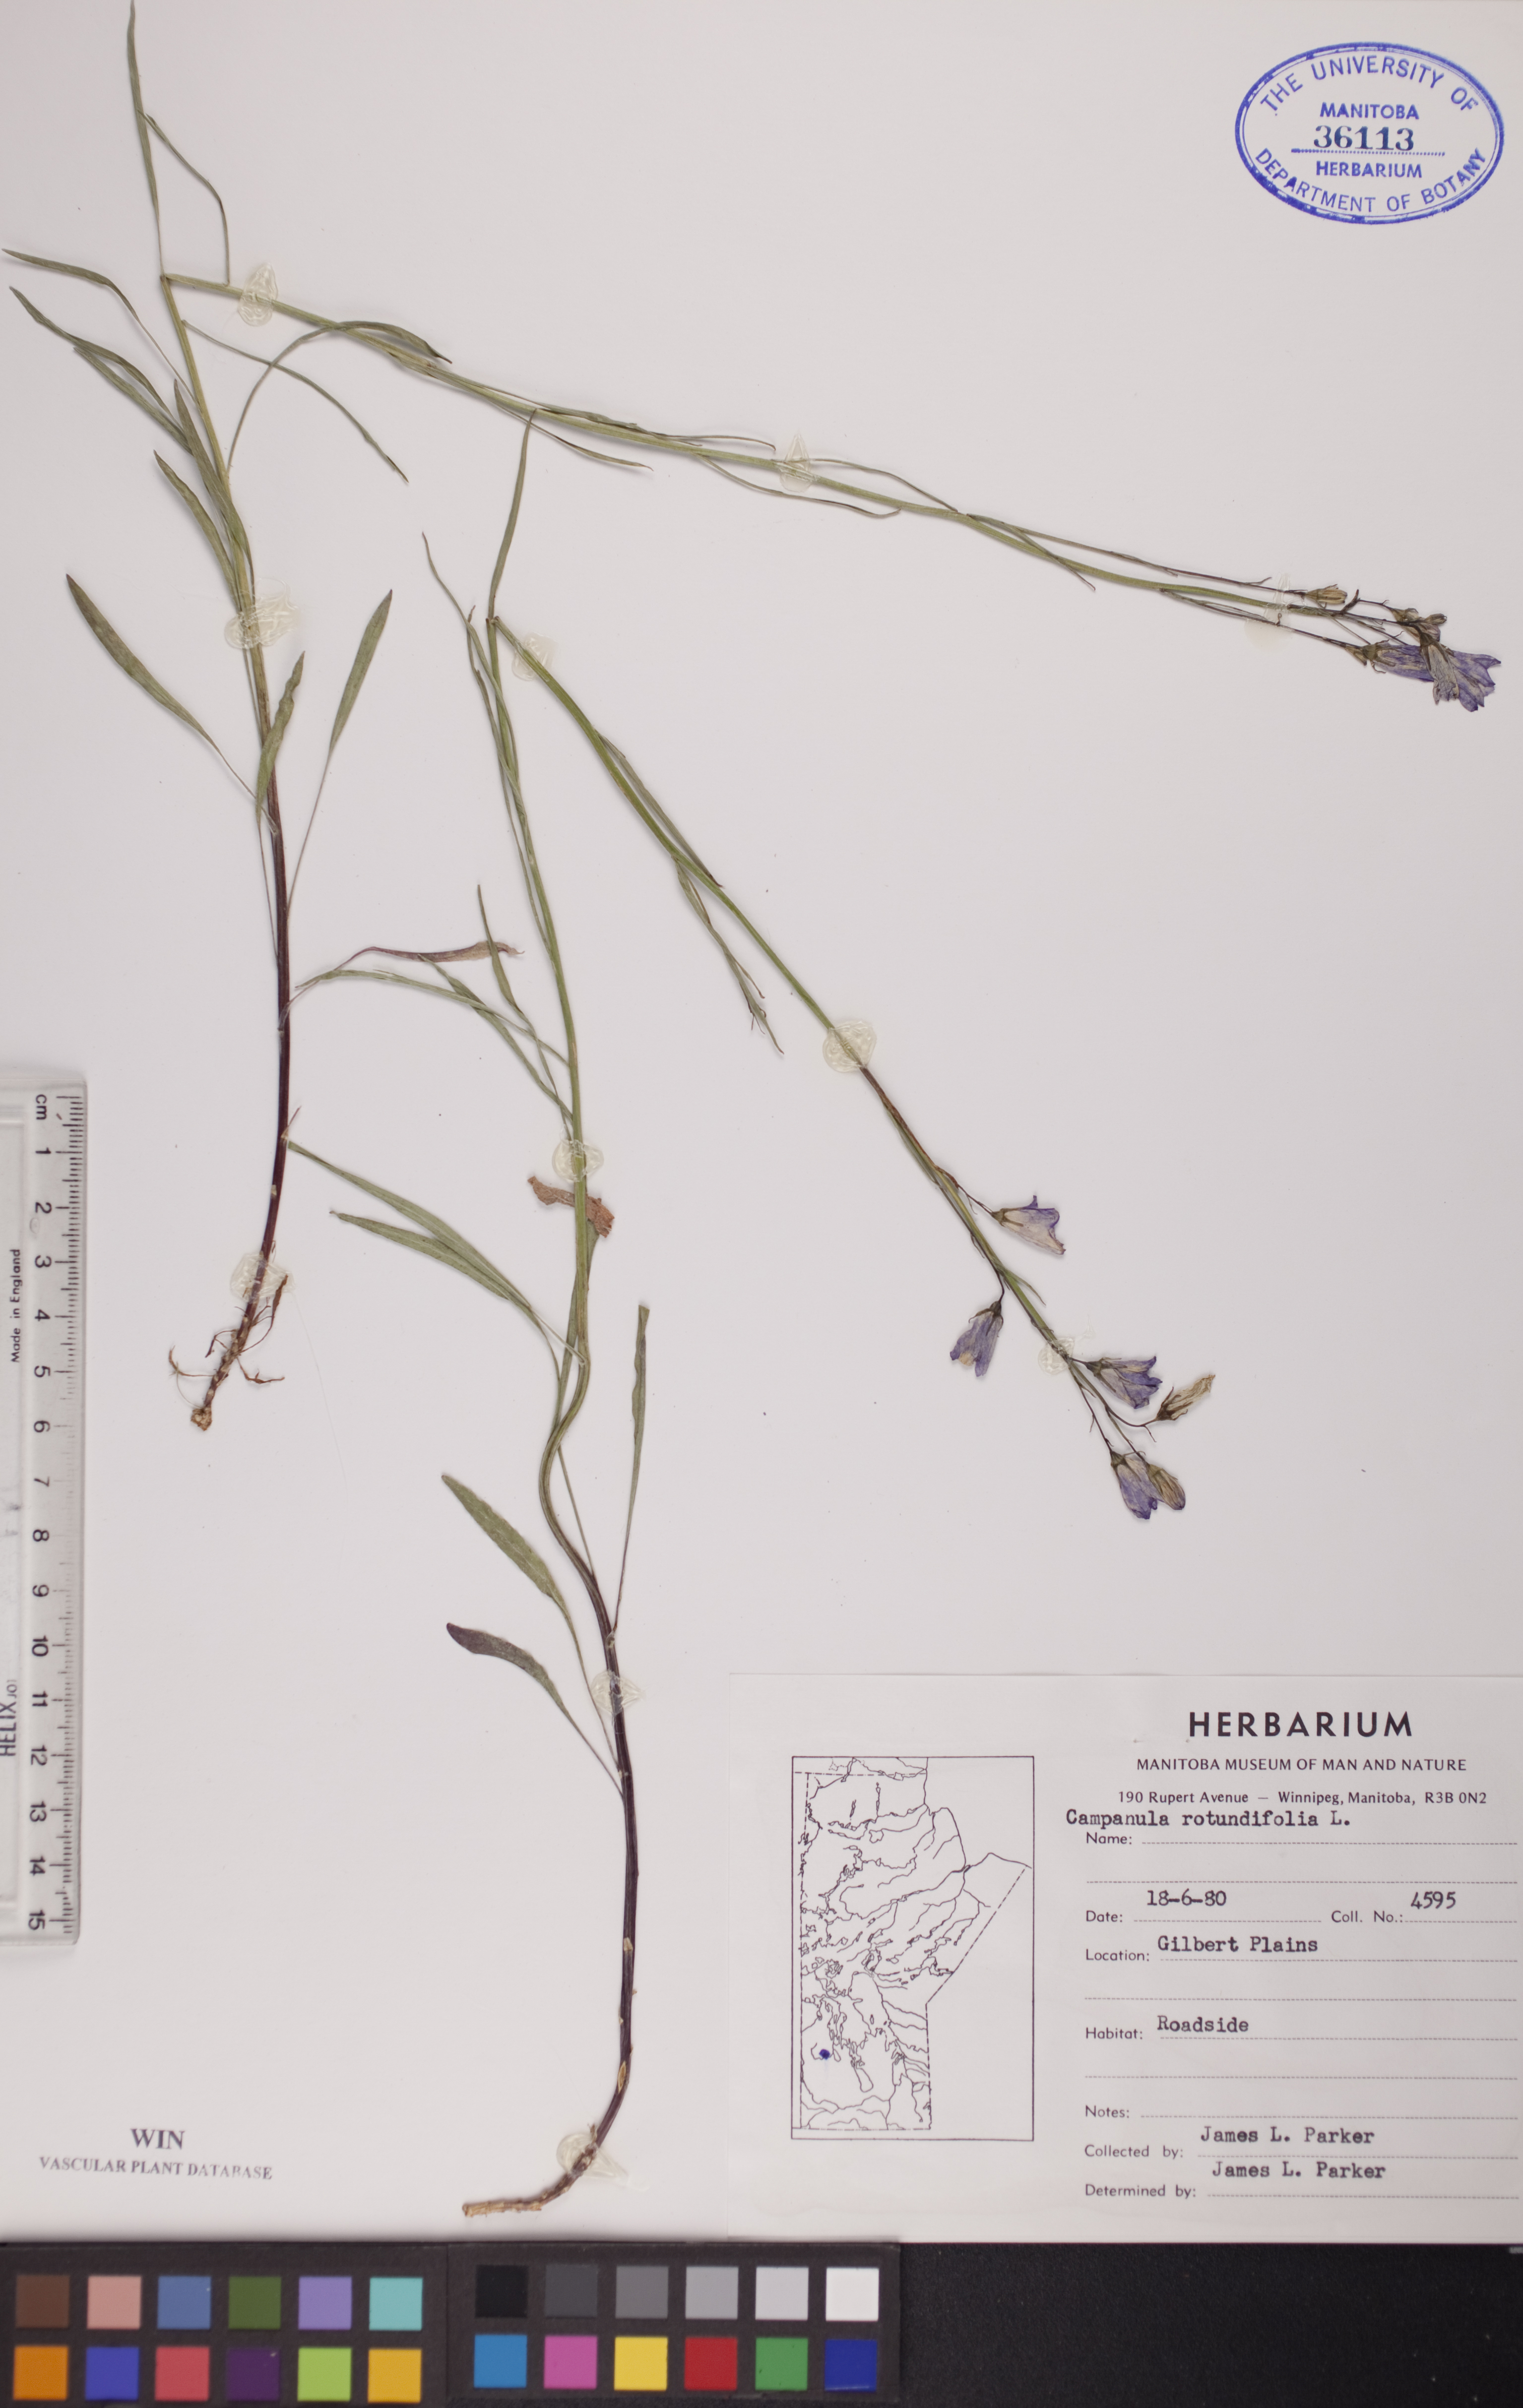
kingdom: Plantae
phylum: Tracheophyta
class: Magnoliopsida
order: Asterales
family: Campanulaceae
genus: Campanula
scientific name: Campanula rotundifolia
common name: Harebell
